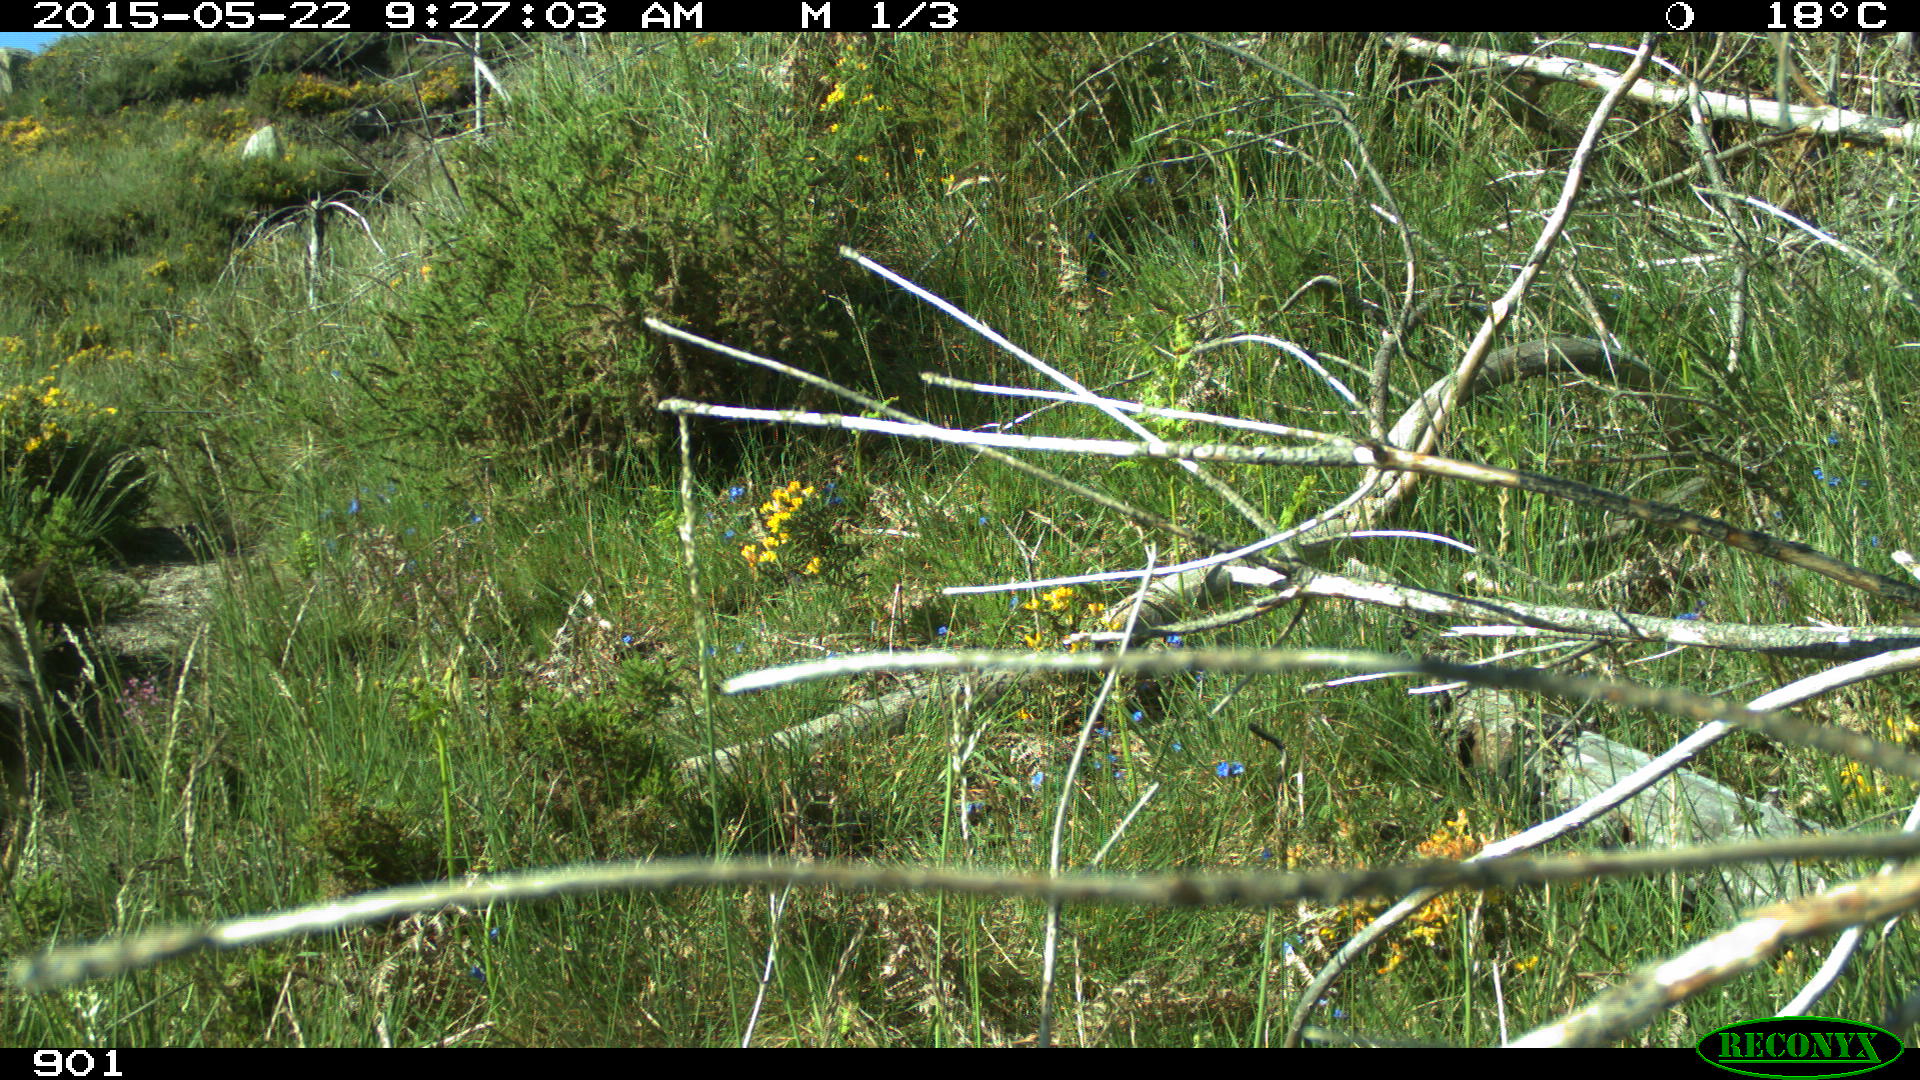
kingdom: Animalia
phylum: Chordata
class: Mammalia
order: Carnivora
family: Canidae
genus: Vulpes
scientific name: Vulpes vulpes
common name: Red fox
